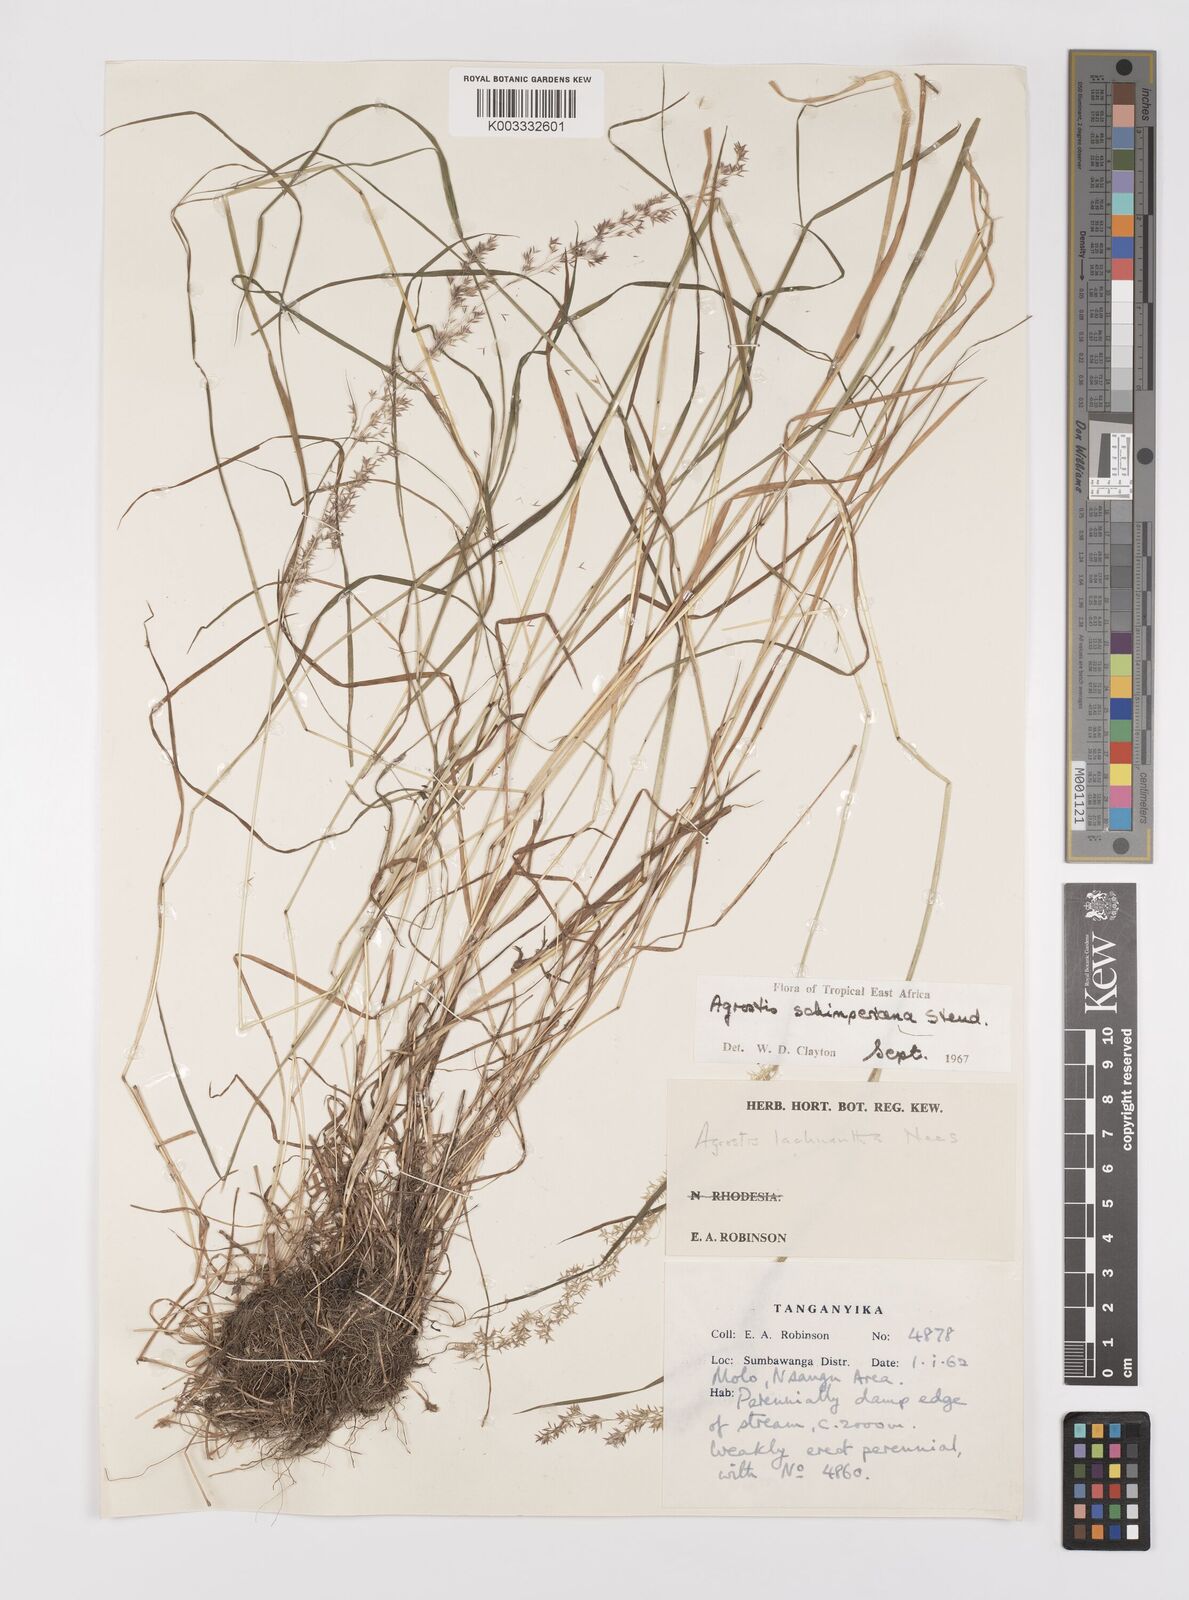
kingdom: Plantae
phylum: Tracheophyta
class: Liliopsida
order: Poales
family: Poaceae
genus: Polypogon
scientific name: Polypogon schimperianus
